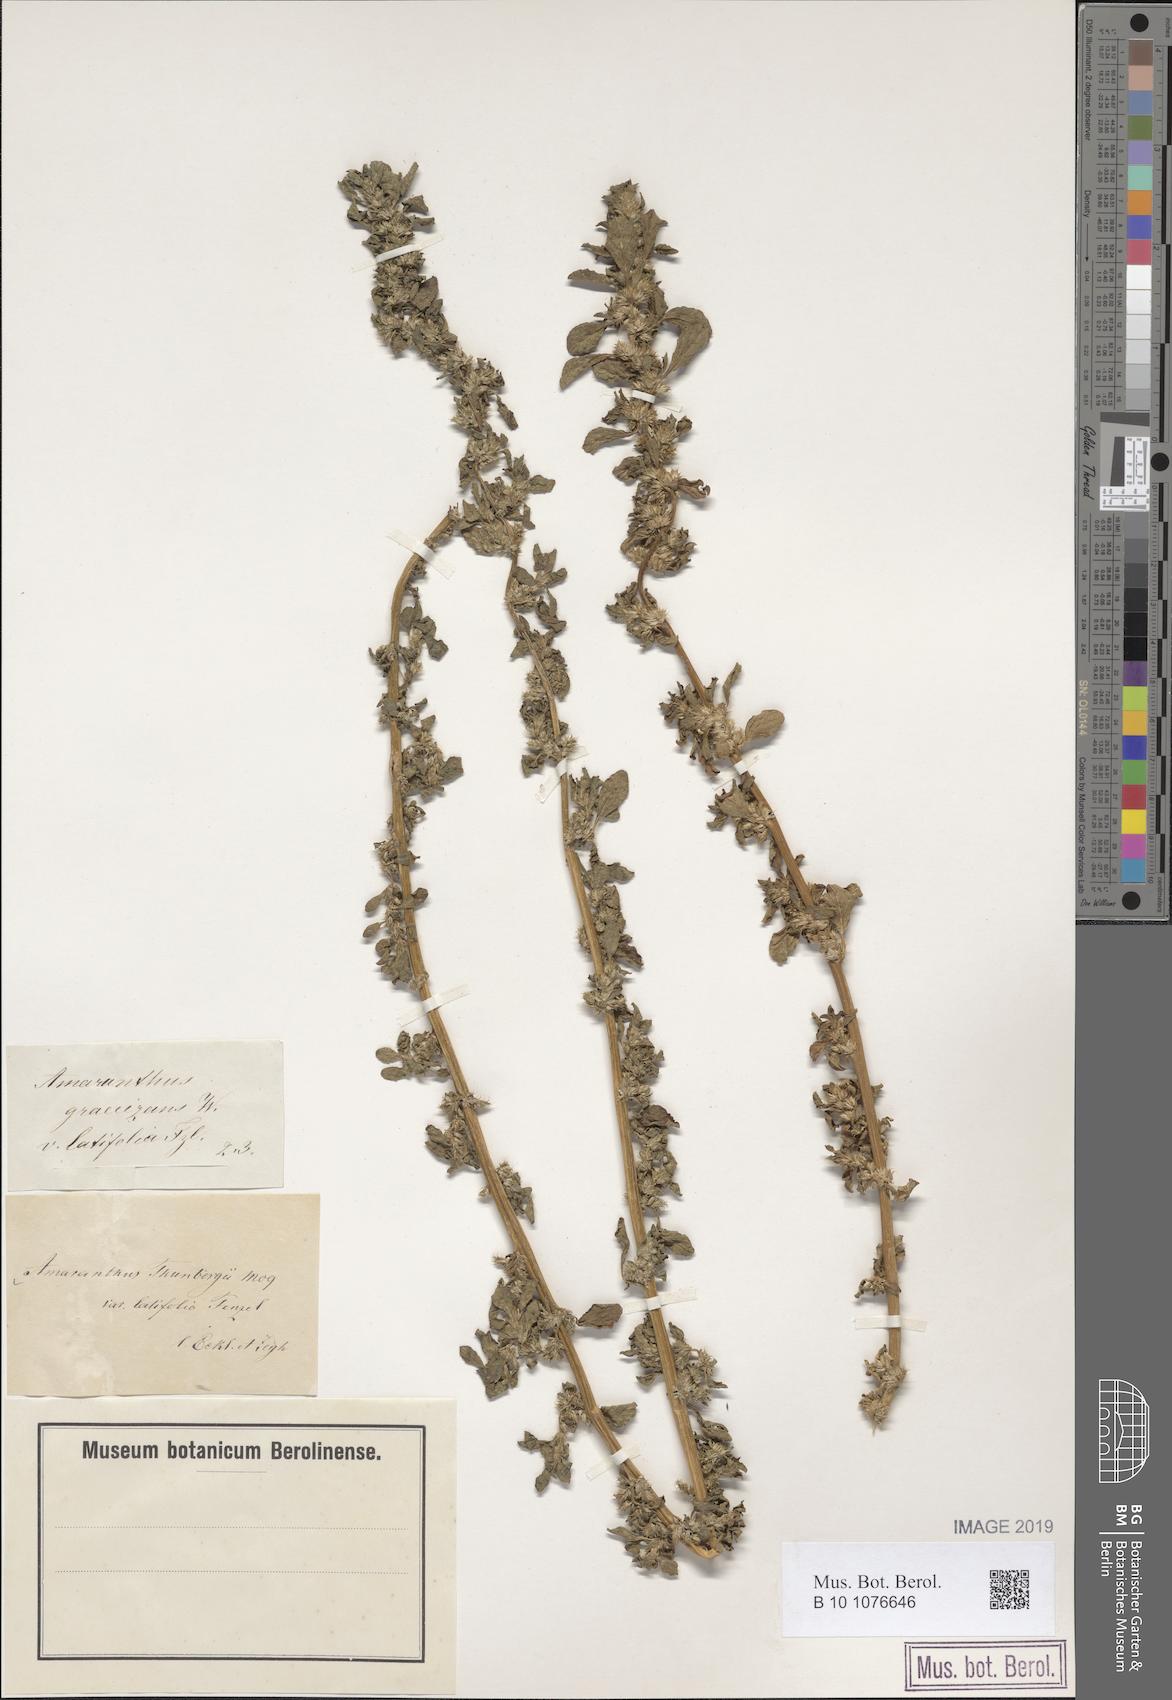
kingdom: Plantae
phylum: Tracheophyta
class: Magnoliopsida
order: Caryophyllales
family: Amaranthaceae
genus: Amaranthus
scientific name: Amaranthus thunbergii
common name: Thunberg's pigweed
